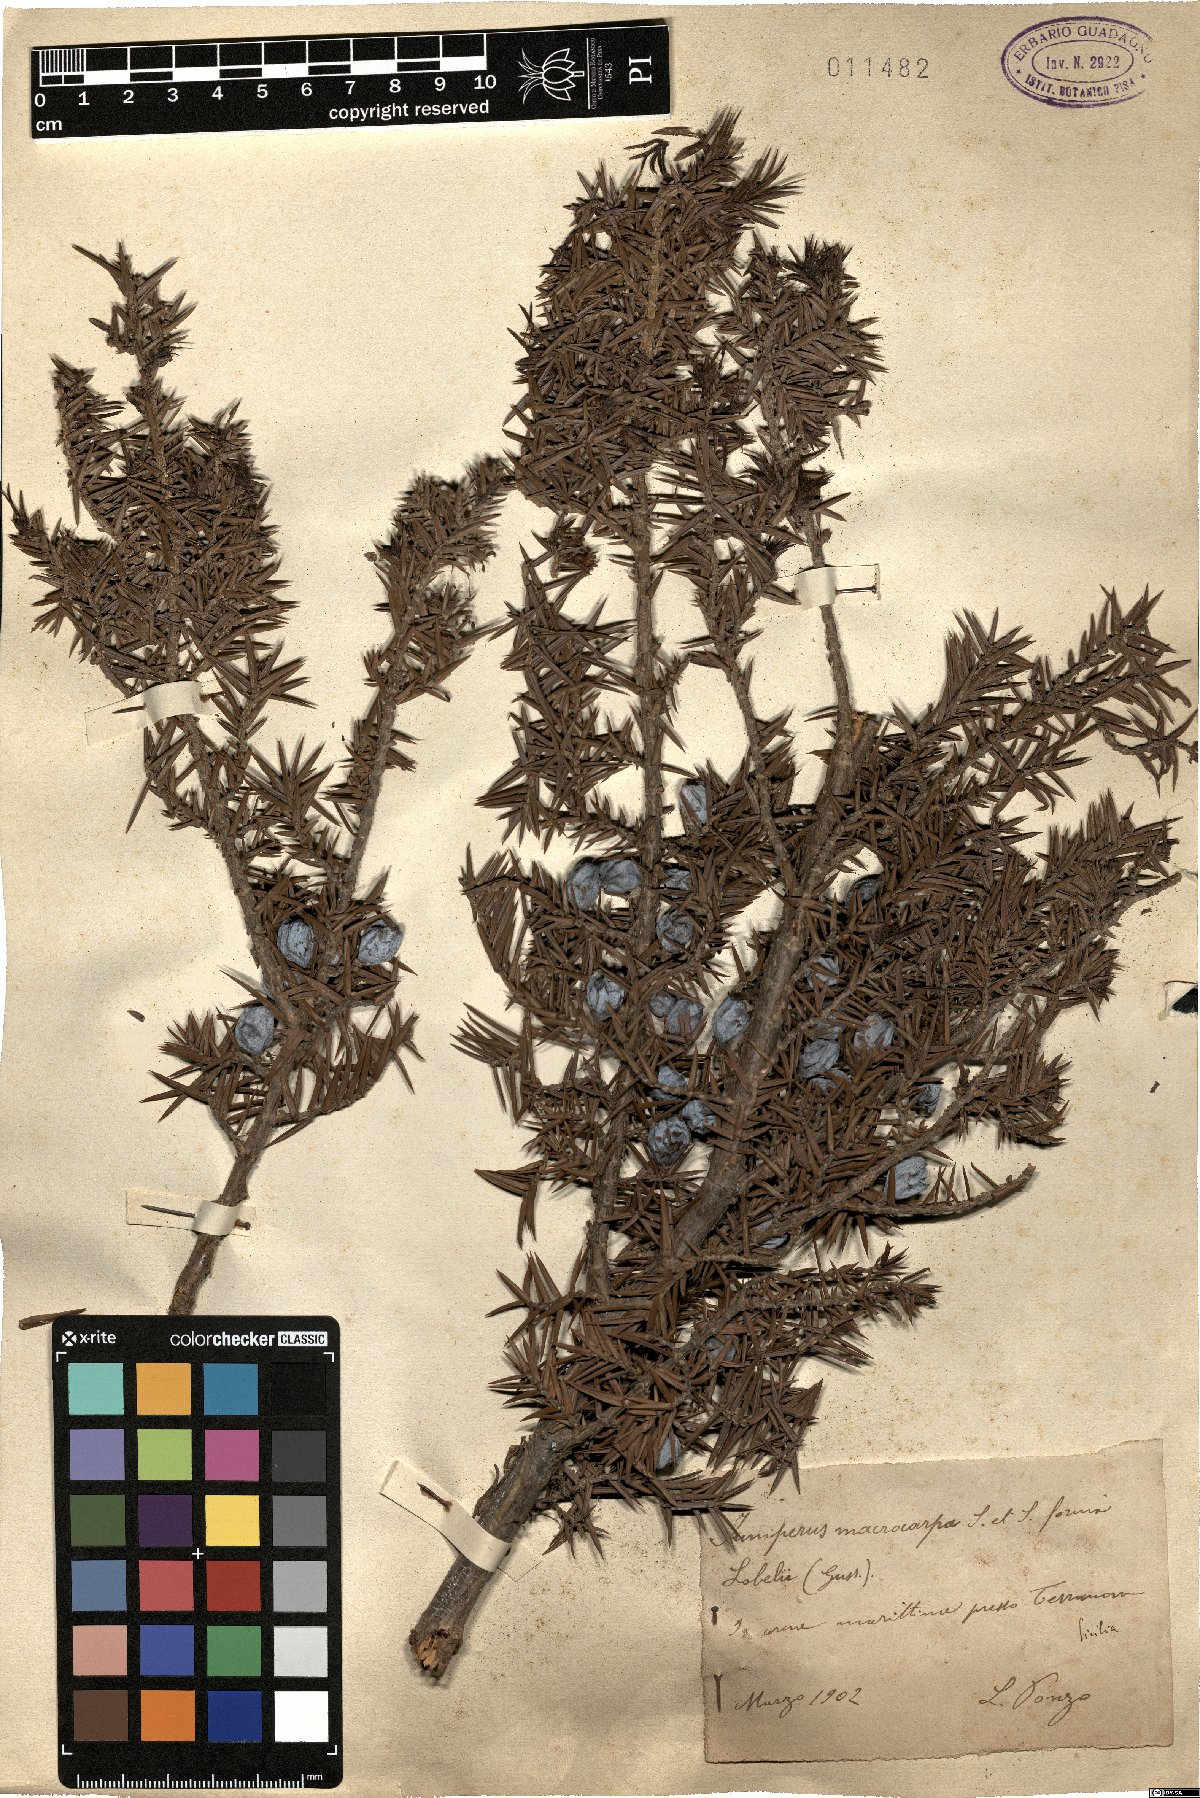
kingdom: Plantae
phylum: Tracheophyta
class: Pinopsida
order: Pinales
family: Cupressaceae
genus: Juniperus
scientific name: Juniperus oxycedrus
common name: Prickly juniper
